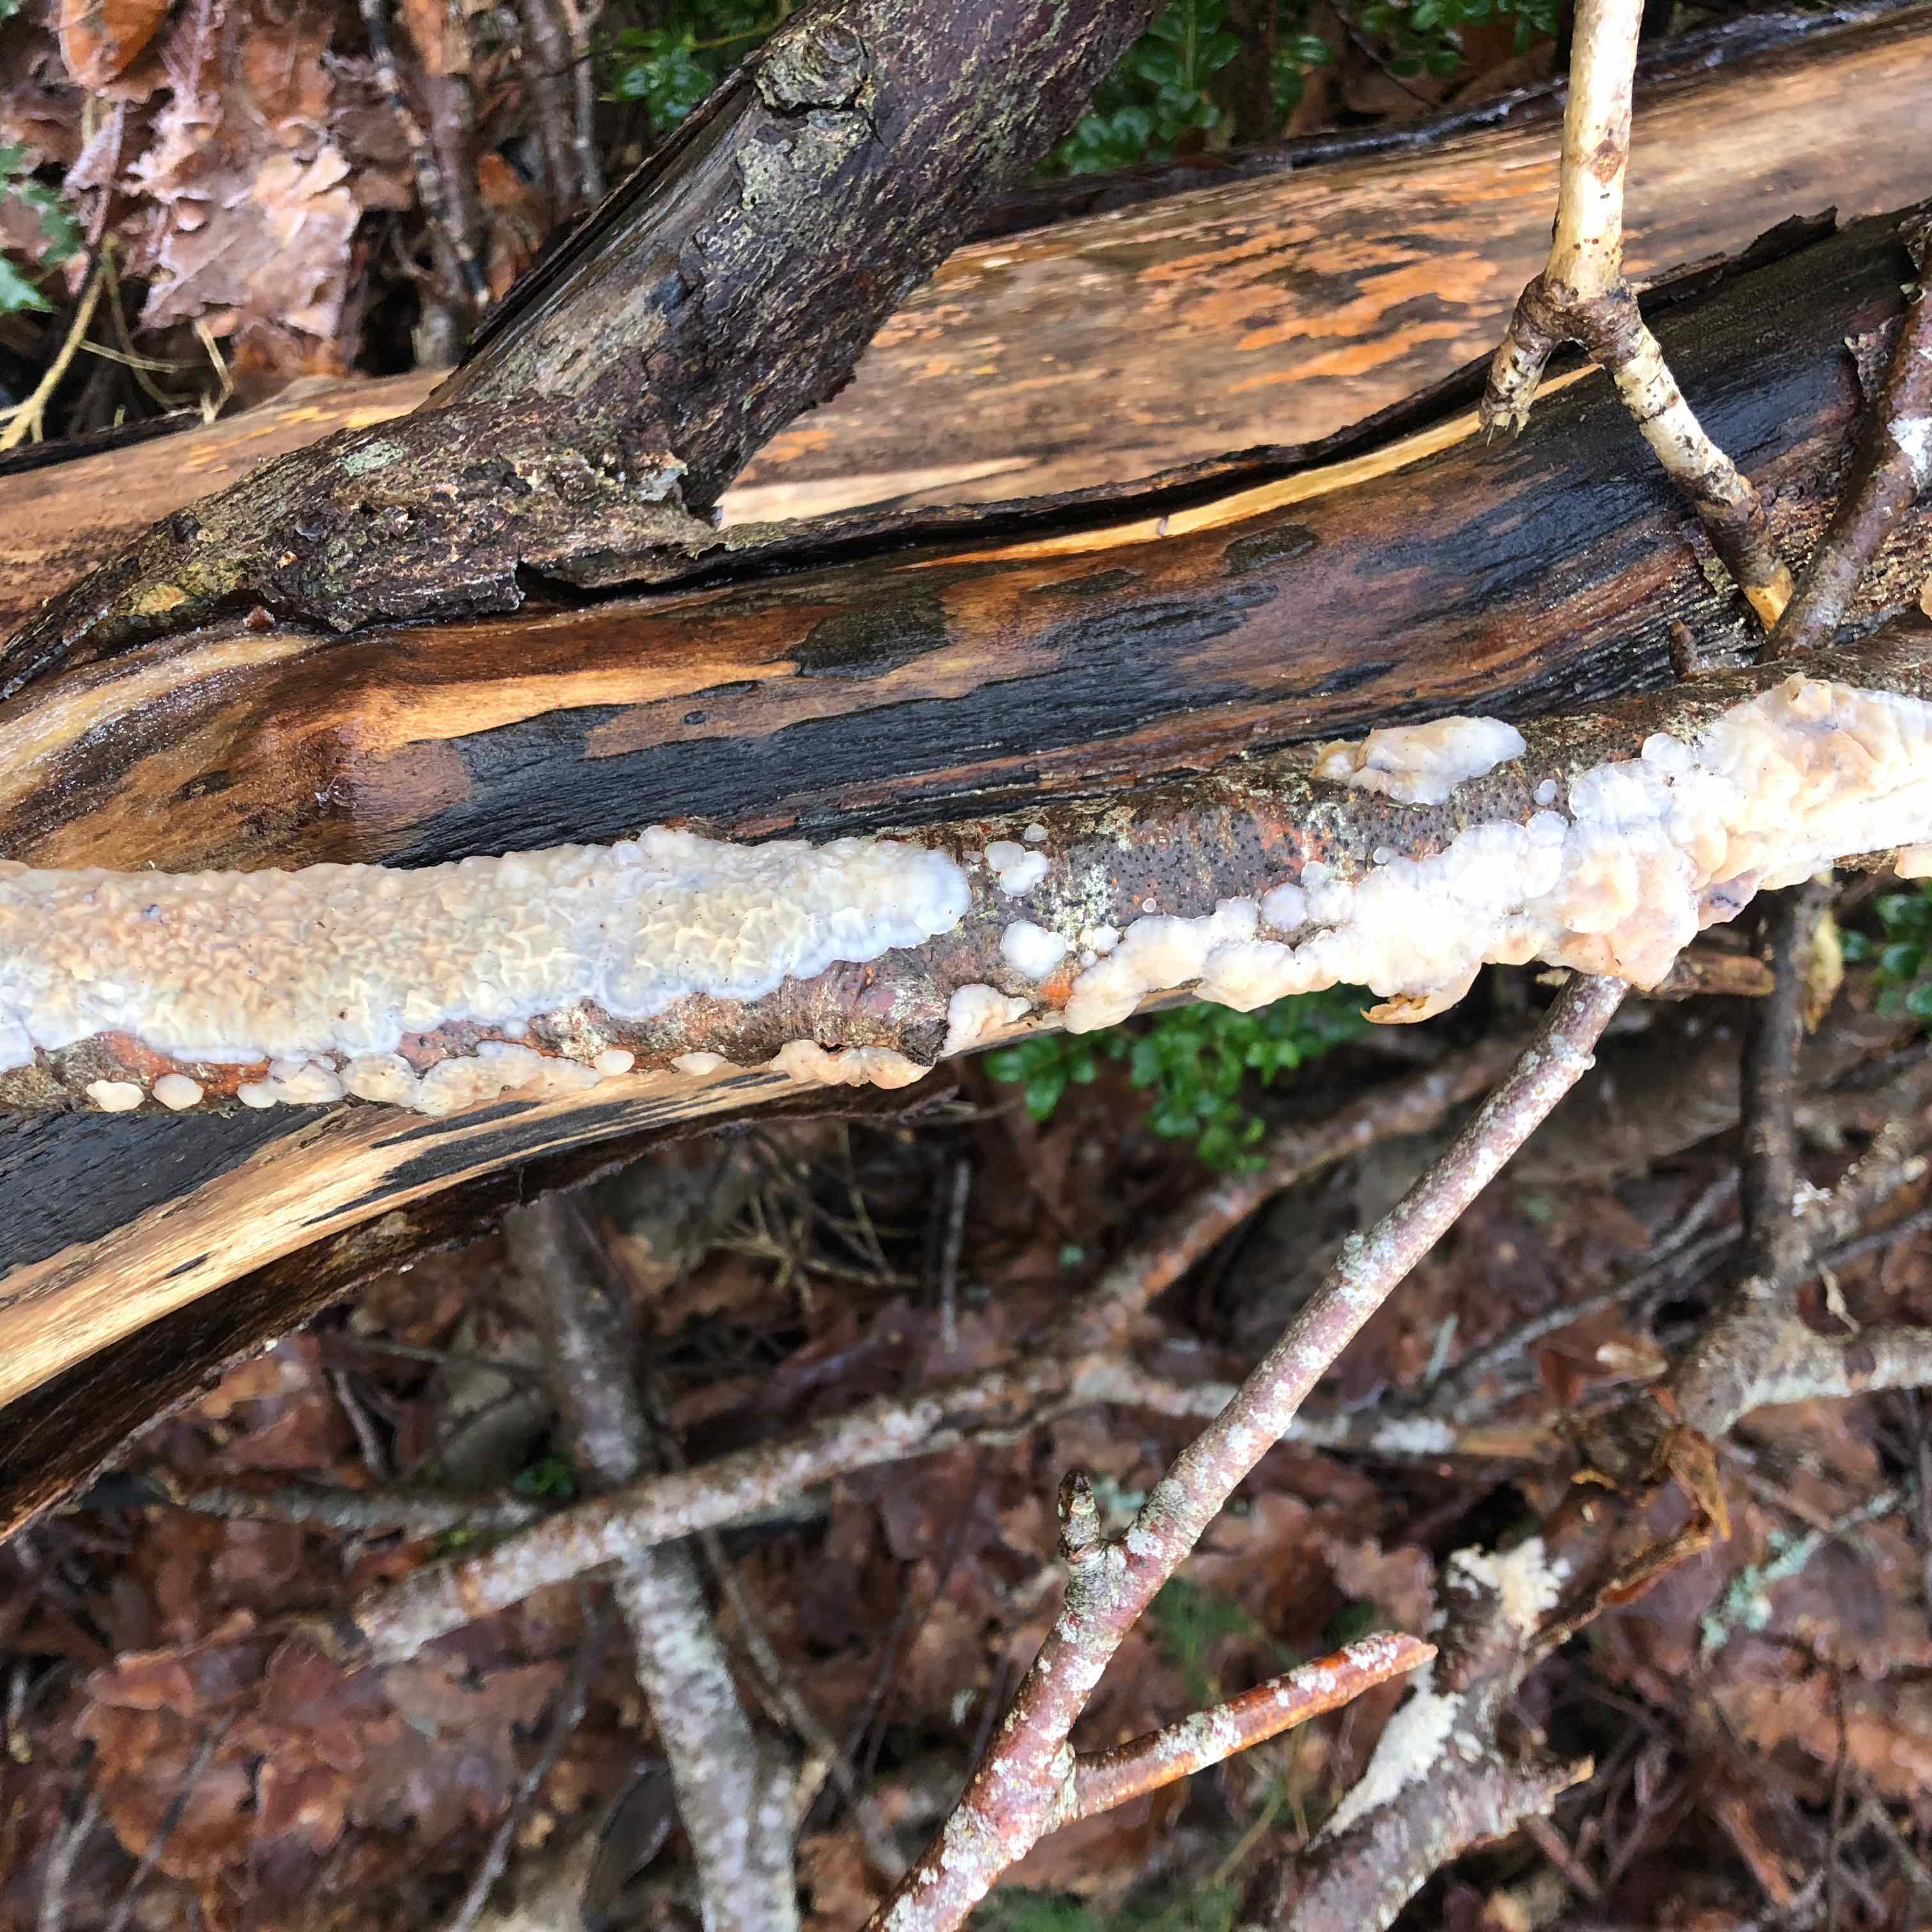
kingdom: Fungi
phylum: Basidiomycota
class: Agaricomycetes
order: Auriculariales
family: Auriculariaceae
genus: Exidia
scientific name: Exidia thuretiana
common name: hvidlig bævretop
